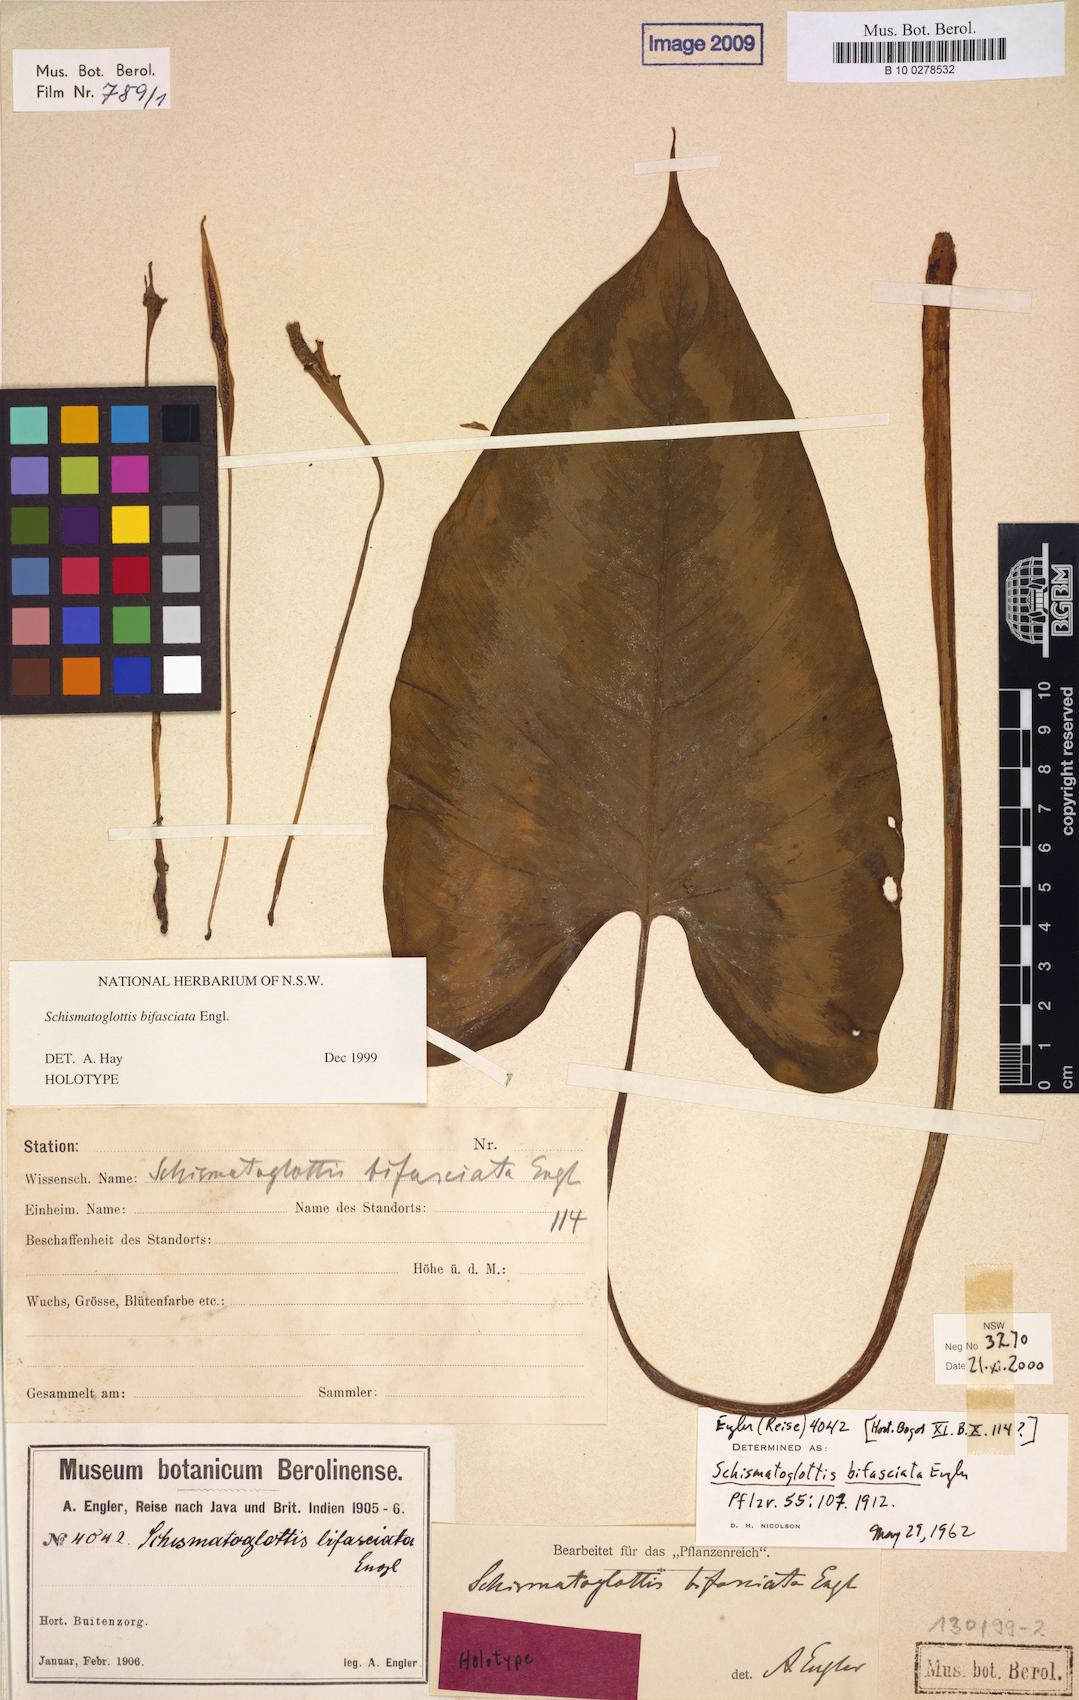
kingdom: Plantae
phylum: Tracheophyta
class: Liliopsida
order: Alismatales
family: Araceae
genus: Schismatoglottis
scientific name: Schismatoglottis
